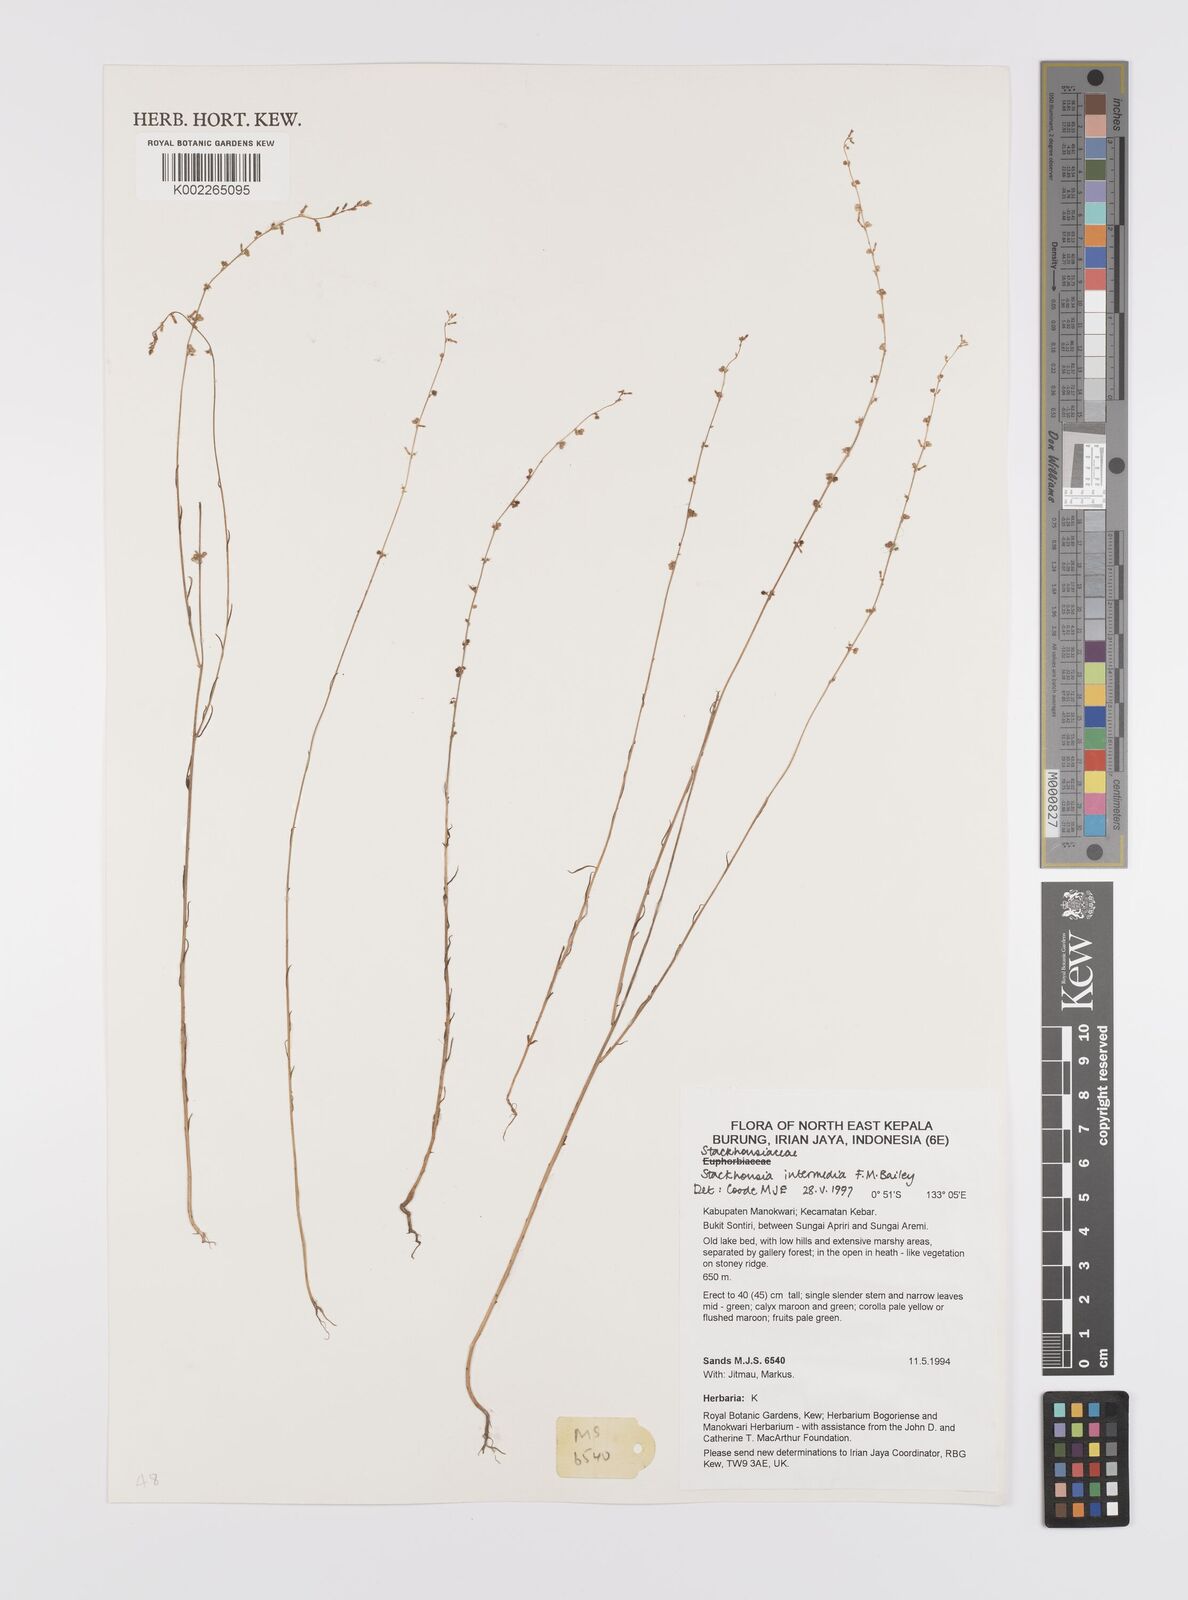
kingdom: Plantae
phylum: Tracheophyta
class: Magnoliopsida
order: Celastrales
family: Celastraceae
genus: Stackhousia
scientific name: Stackhousia intermedia
